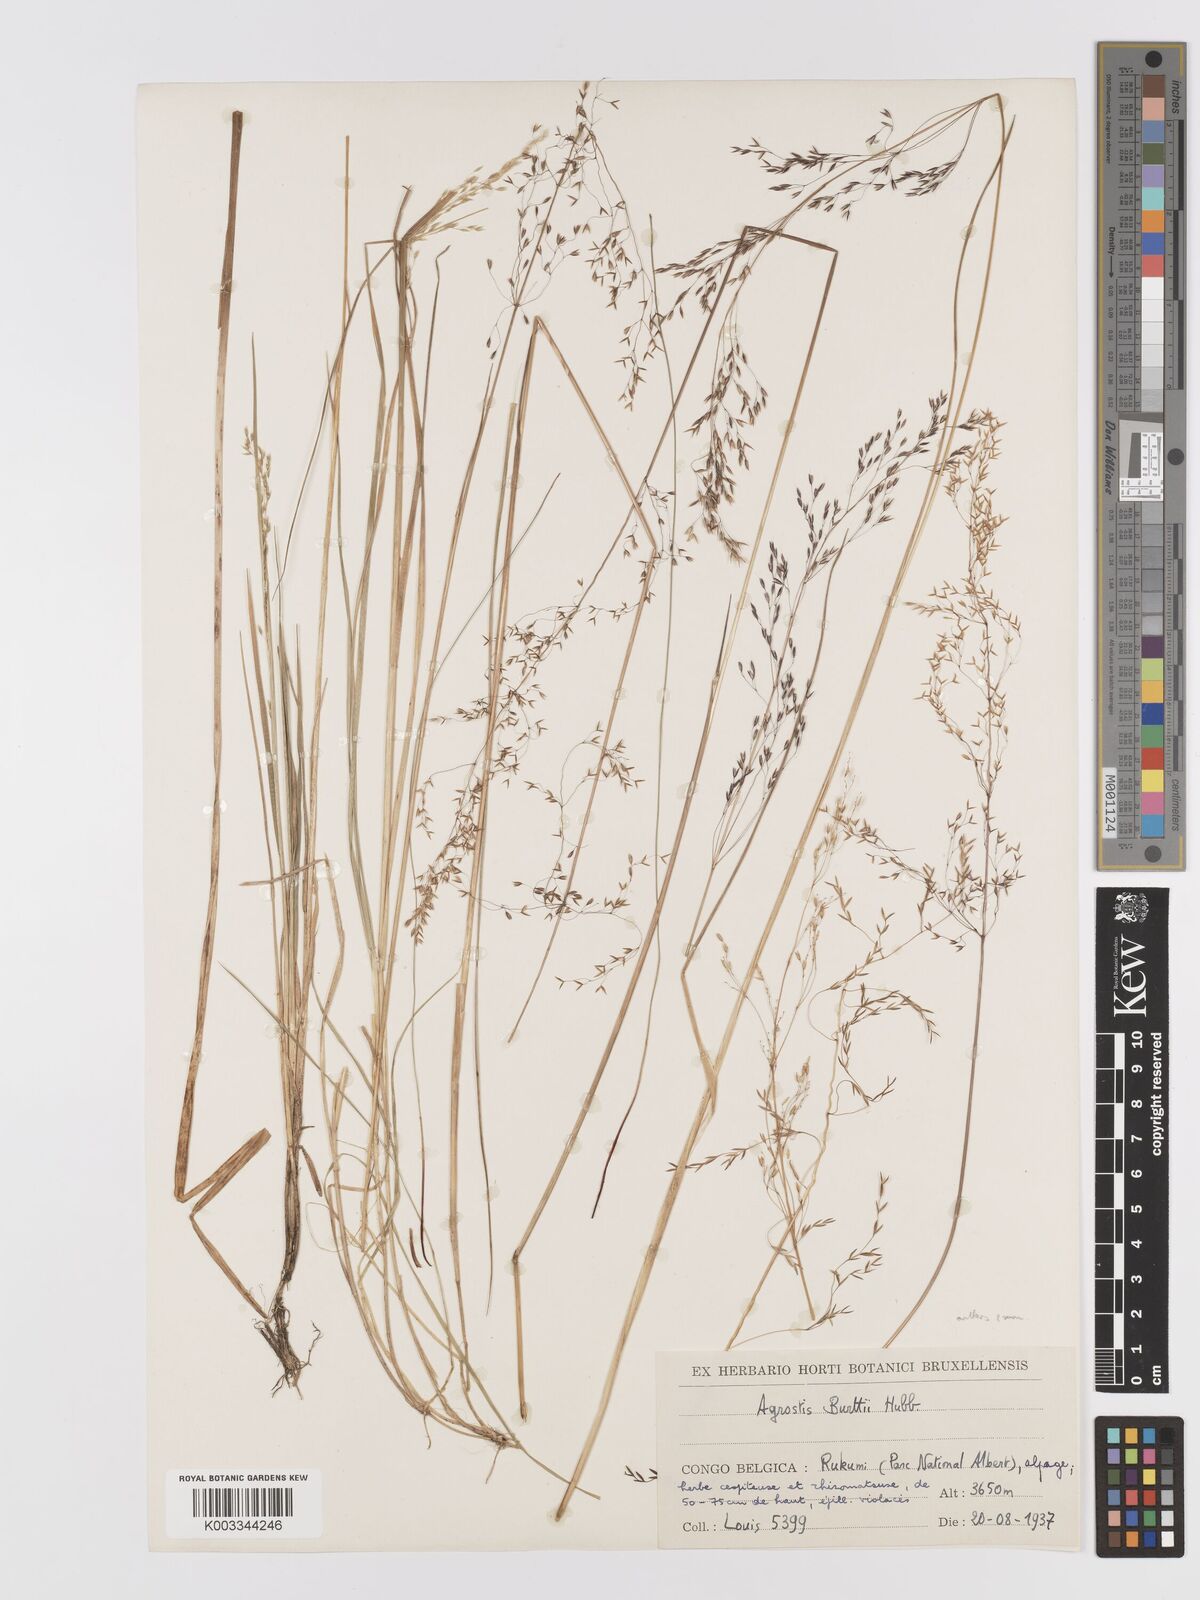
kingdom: Plantae
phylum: Tracheophyta
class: Liliopsida
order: Poales
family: Poaceae
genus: Agrostis
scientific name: Agrostis kilimandscharica
